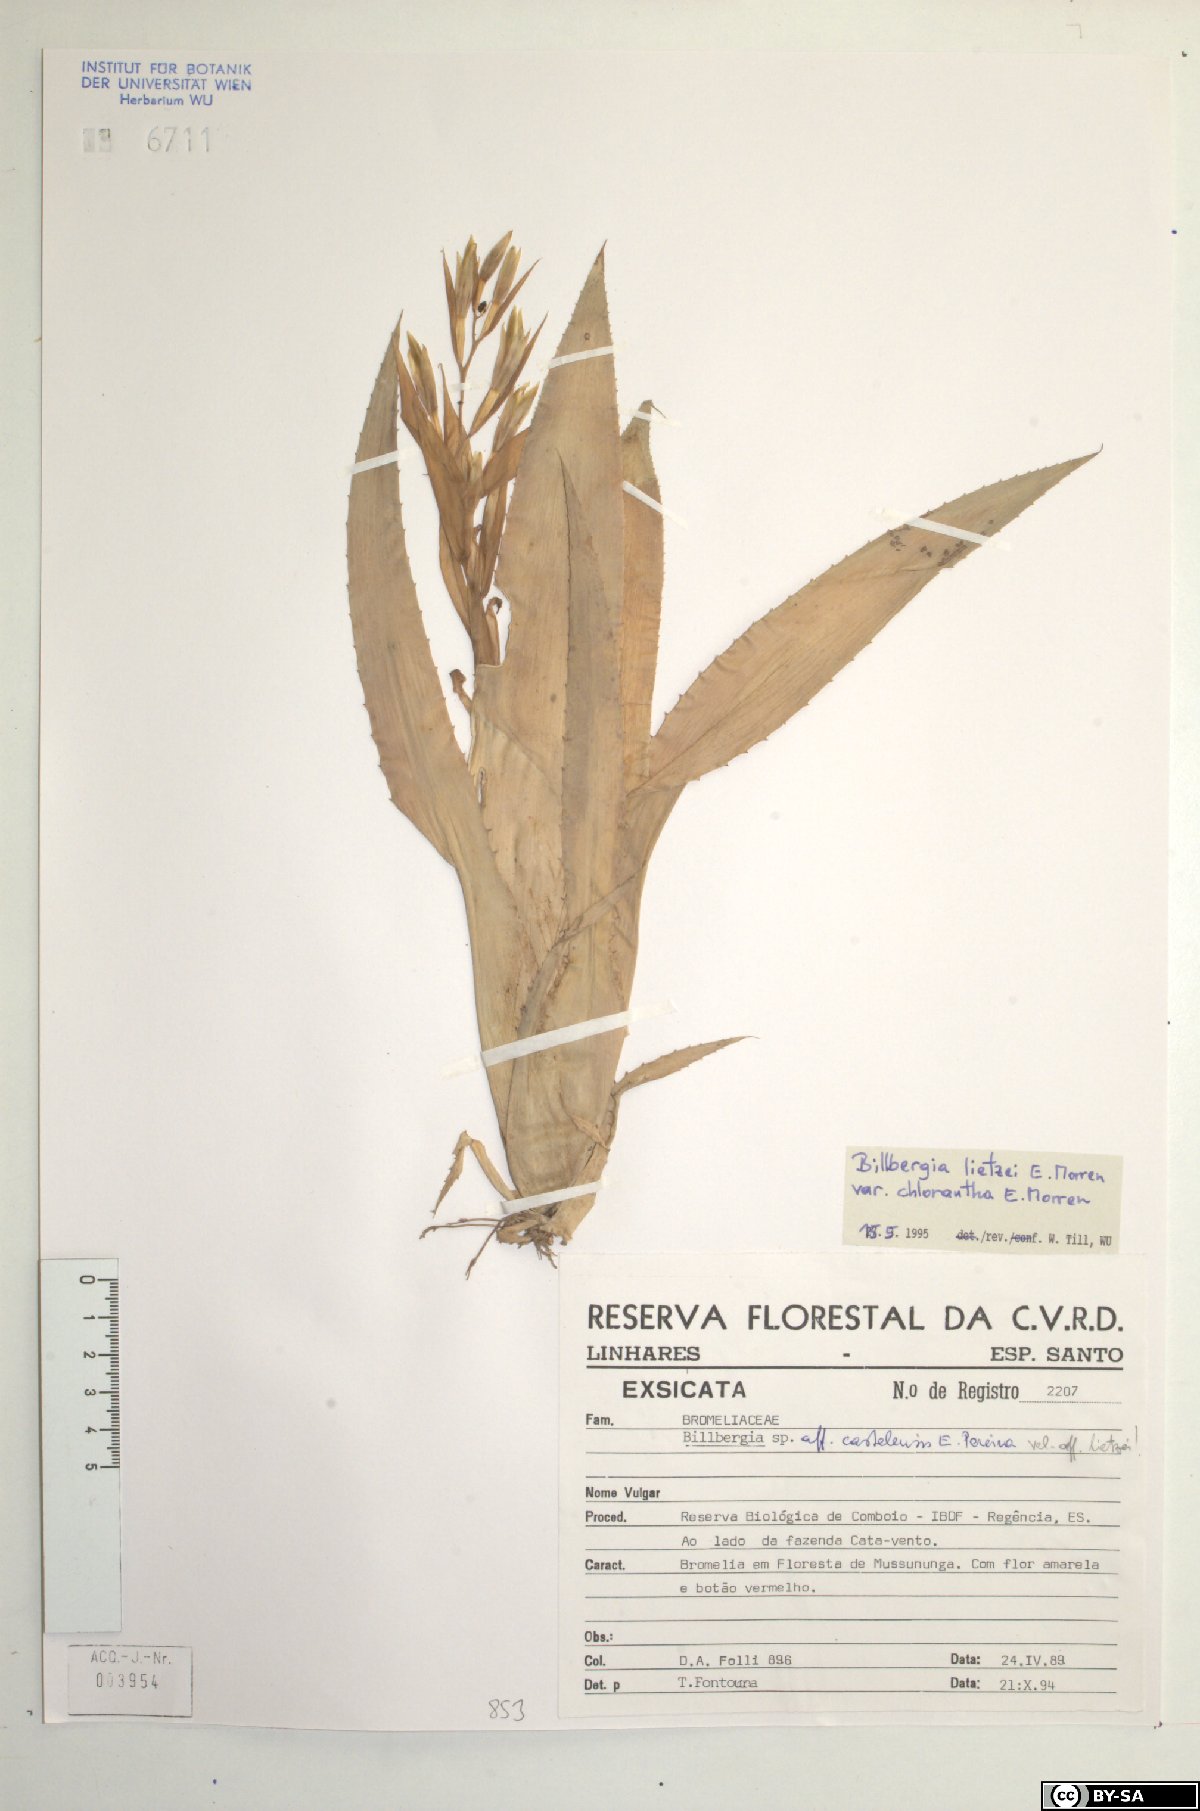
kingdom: Plantae
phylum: Tracheophyta
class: Liliopsida
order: Poales
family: Bromeliaceae
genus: Billbergia
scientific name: Billbergia lietzei
